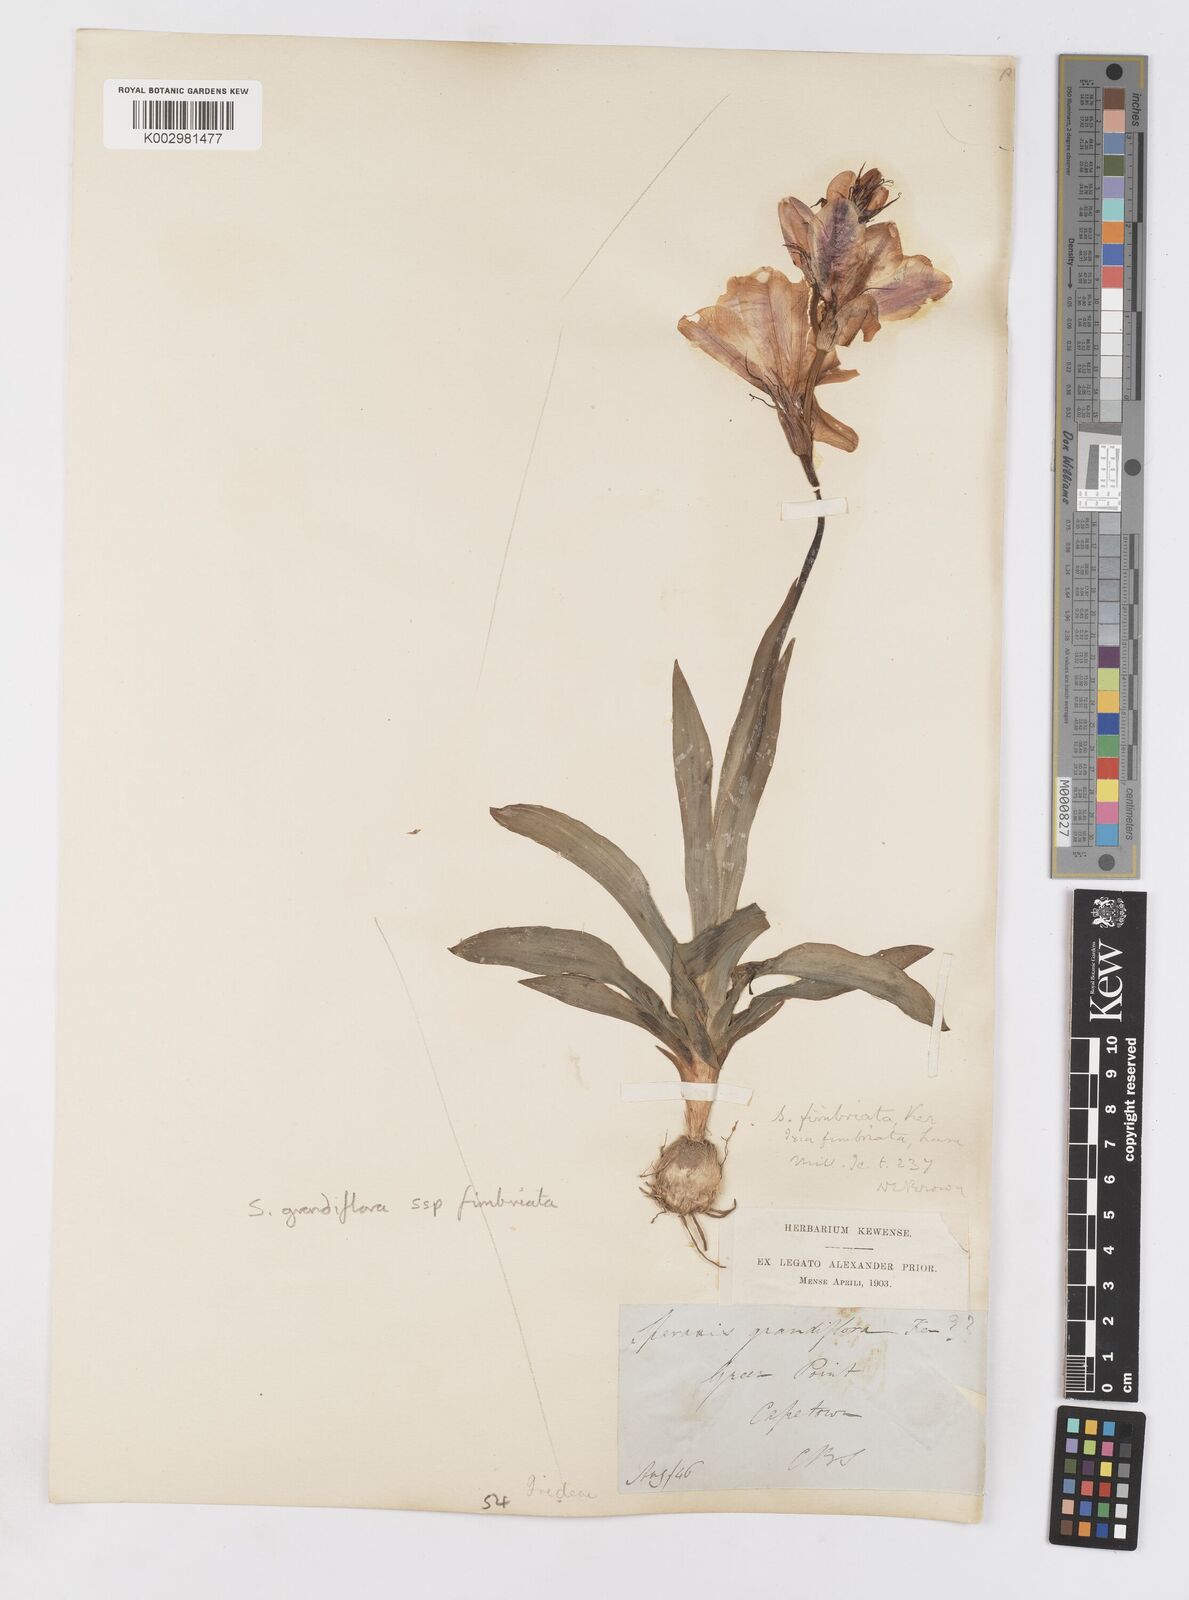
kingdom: Plantae
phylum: Tracheophyta
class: Liliopsida
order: Asparagales
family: Iridaceae
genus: Sparaxis
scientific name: Sparaxis grandiflora
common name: Plain harlequin-flower
